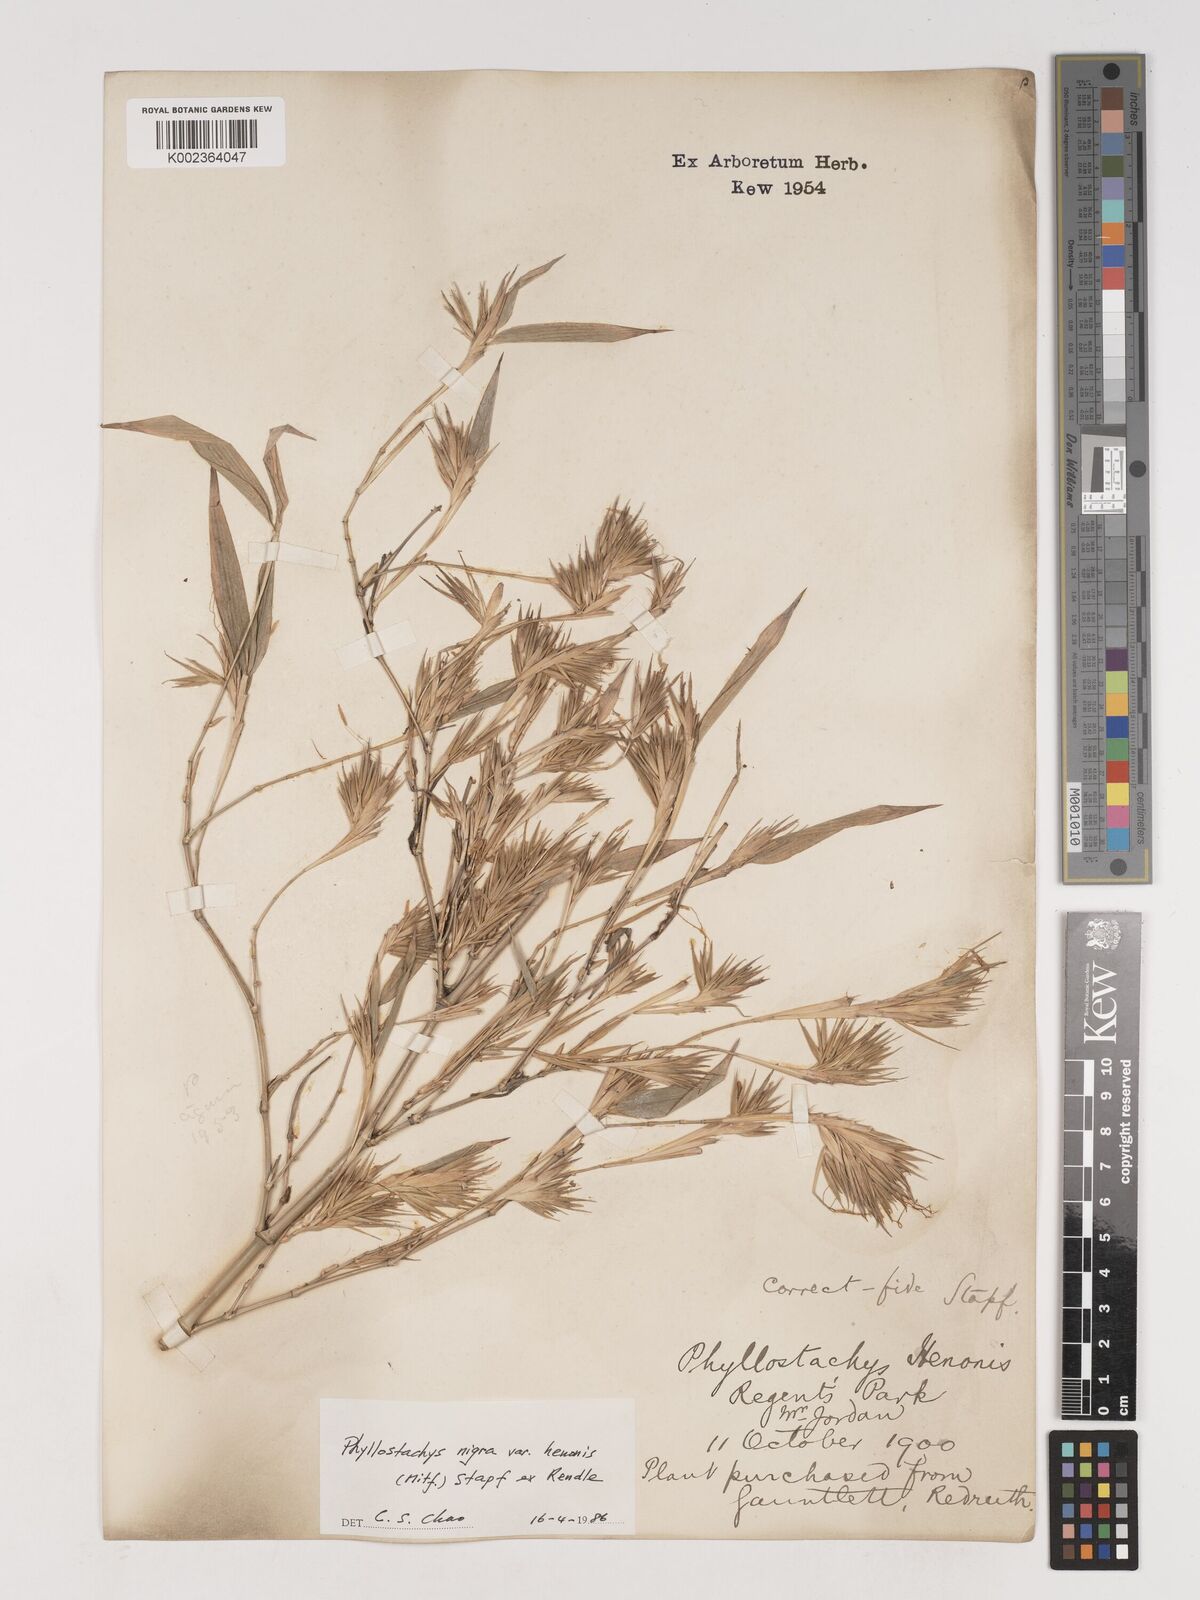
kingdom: Plantae
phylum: Tracheophyta
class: Liliopsida
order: Poales
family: Poaceae
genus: Phyllostachys
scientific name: Phyllostachys nigra
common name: Black bamboo
